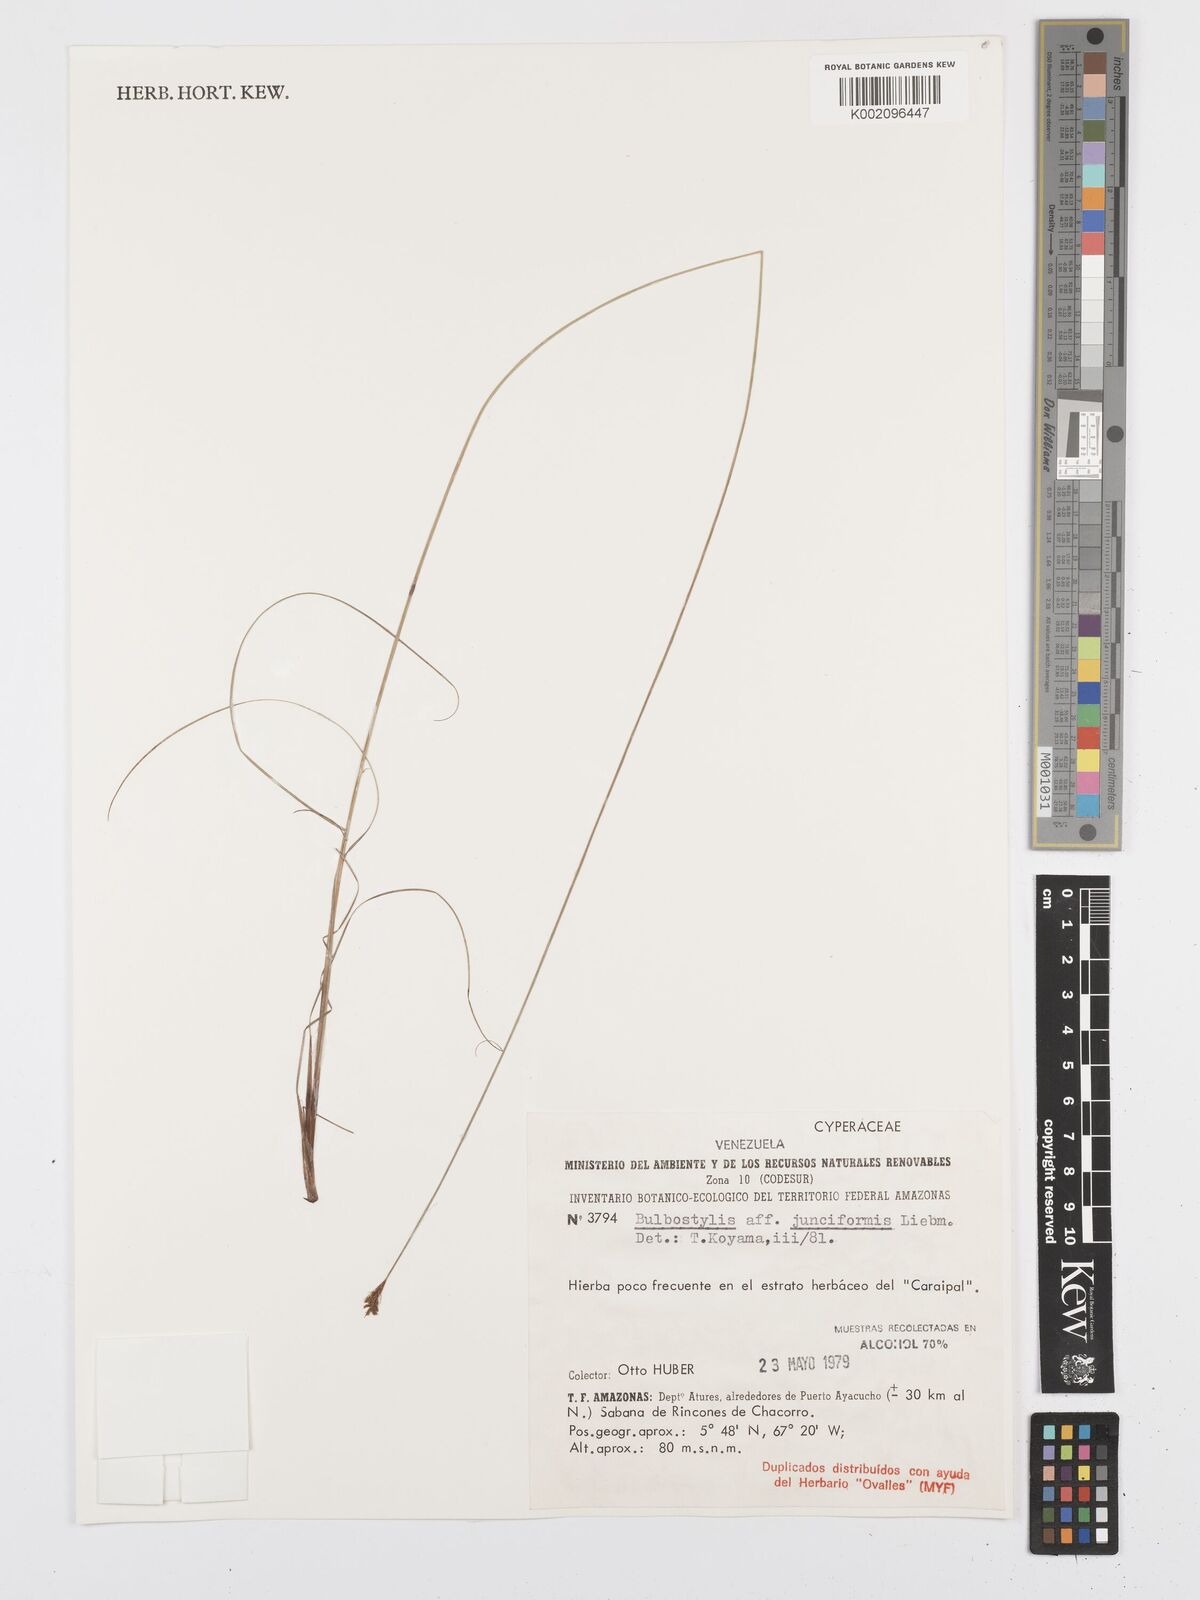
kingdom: Plantae
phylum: Tracheophyta
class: Liliopsida
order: Poales
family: Cyperaceae
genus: Bulbostylis
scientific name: Bulbostylis junciformis
